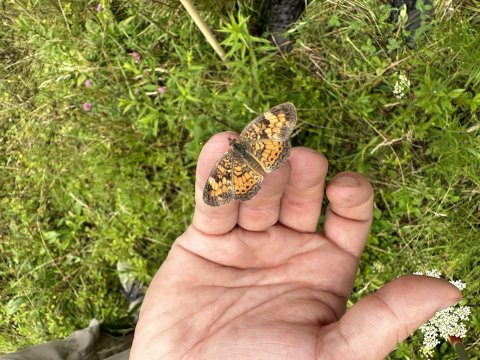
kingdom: Animalia
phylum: Arthropoda
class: Insecta
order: Lepidoptera
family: Nymphalidae
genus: Phyciodes
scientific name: Phyciodes
